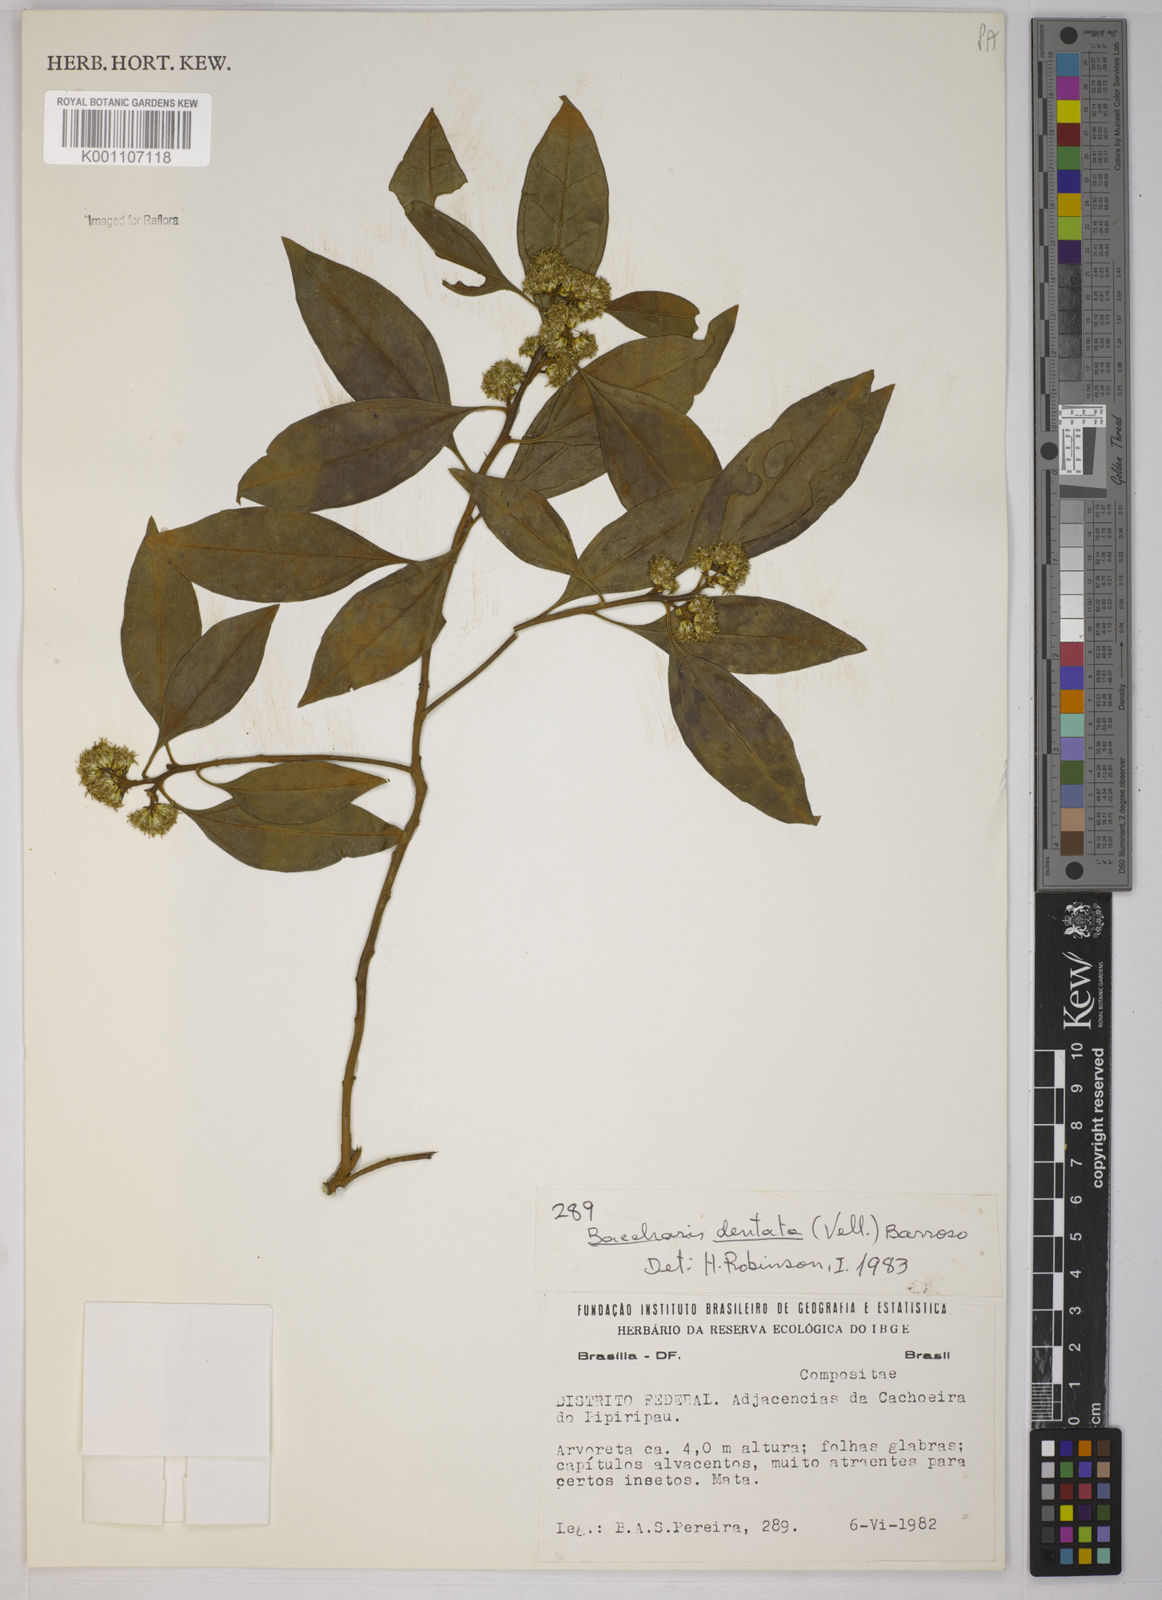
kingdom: Plantae
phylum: Tracheophyta
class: Magnoliopsida
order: Asterales
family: Asteraceae
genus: Baccharis
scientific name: Baccharis dentata
